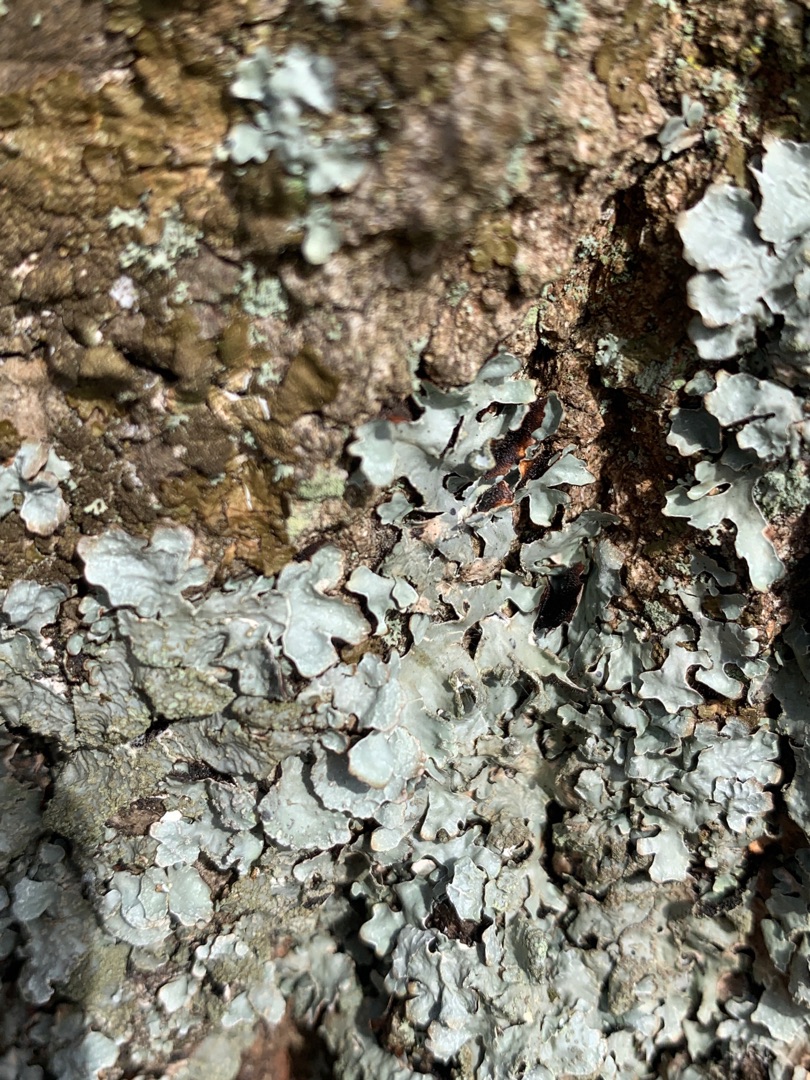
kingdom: Fungi
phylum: Ascomycota
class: Lecanoromycetes
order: Lecanorales
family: Parmeliaceae
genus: Parmelia
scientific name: Parmelia sulcata
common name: Rynket skållav
